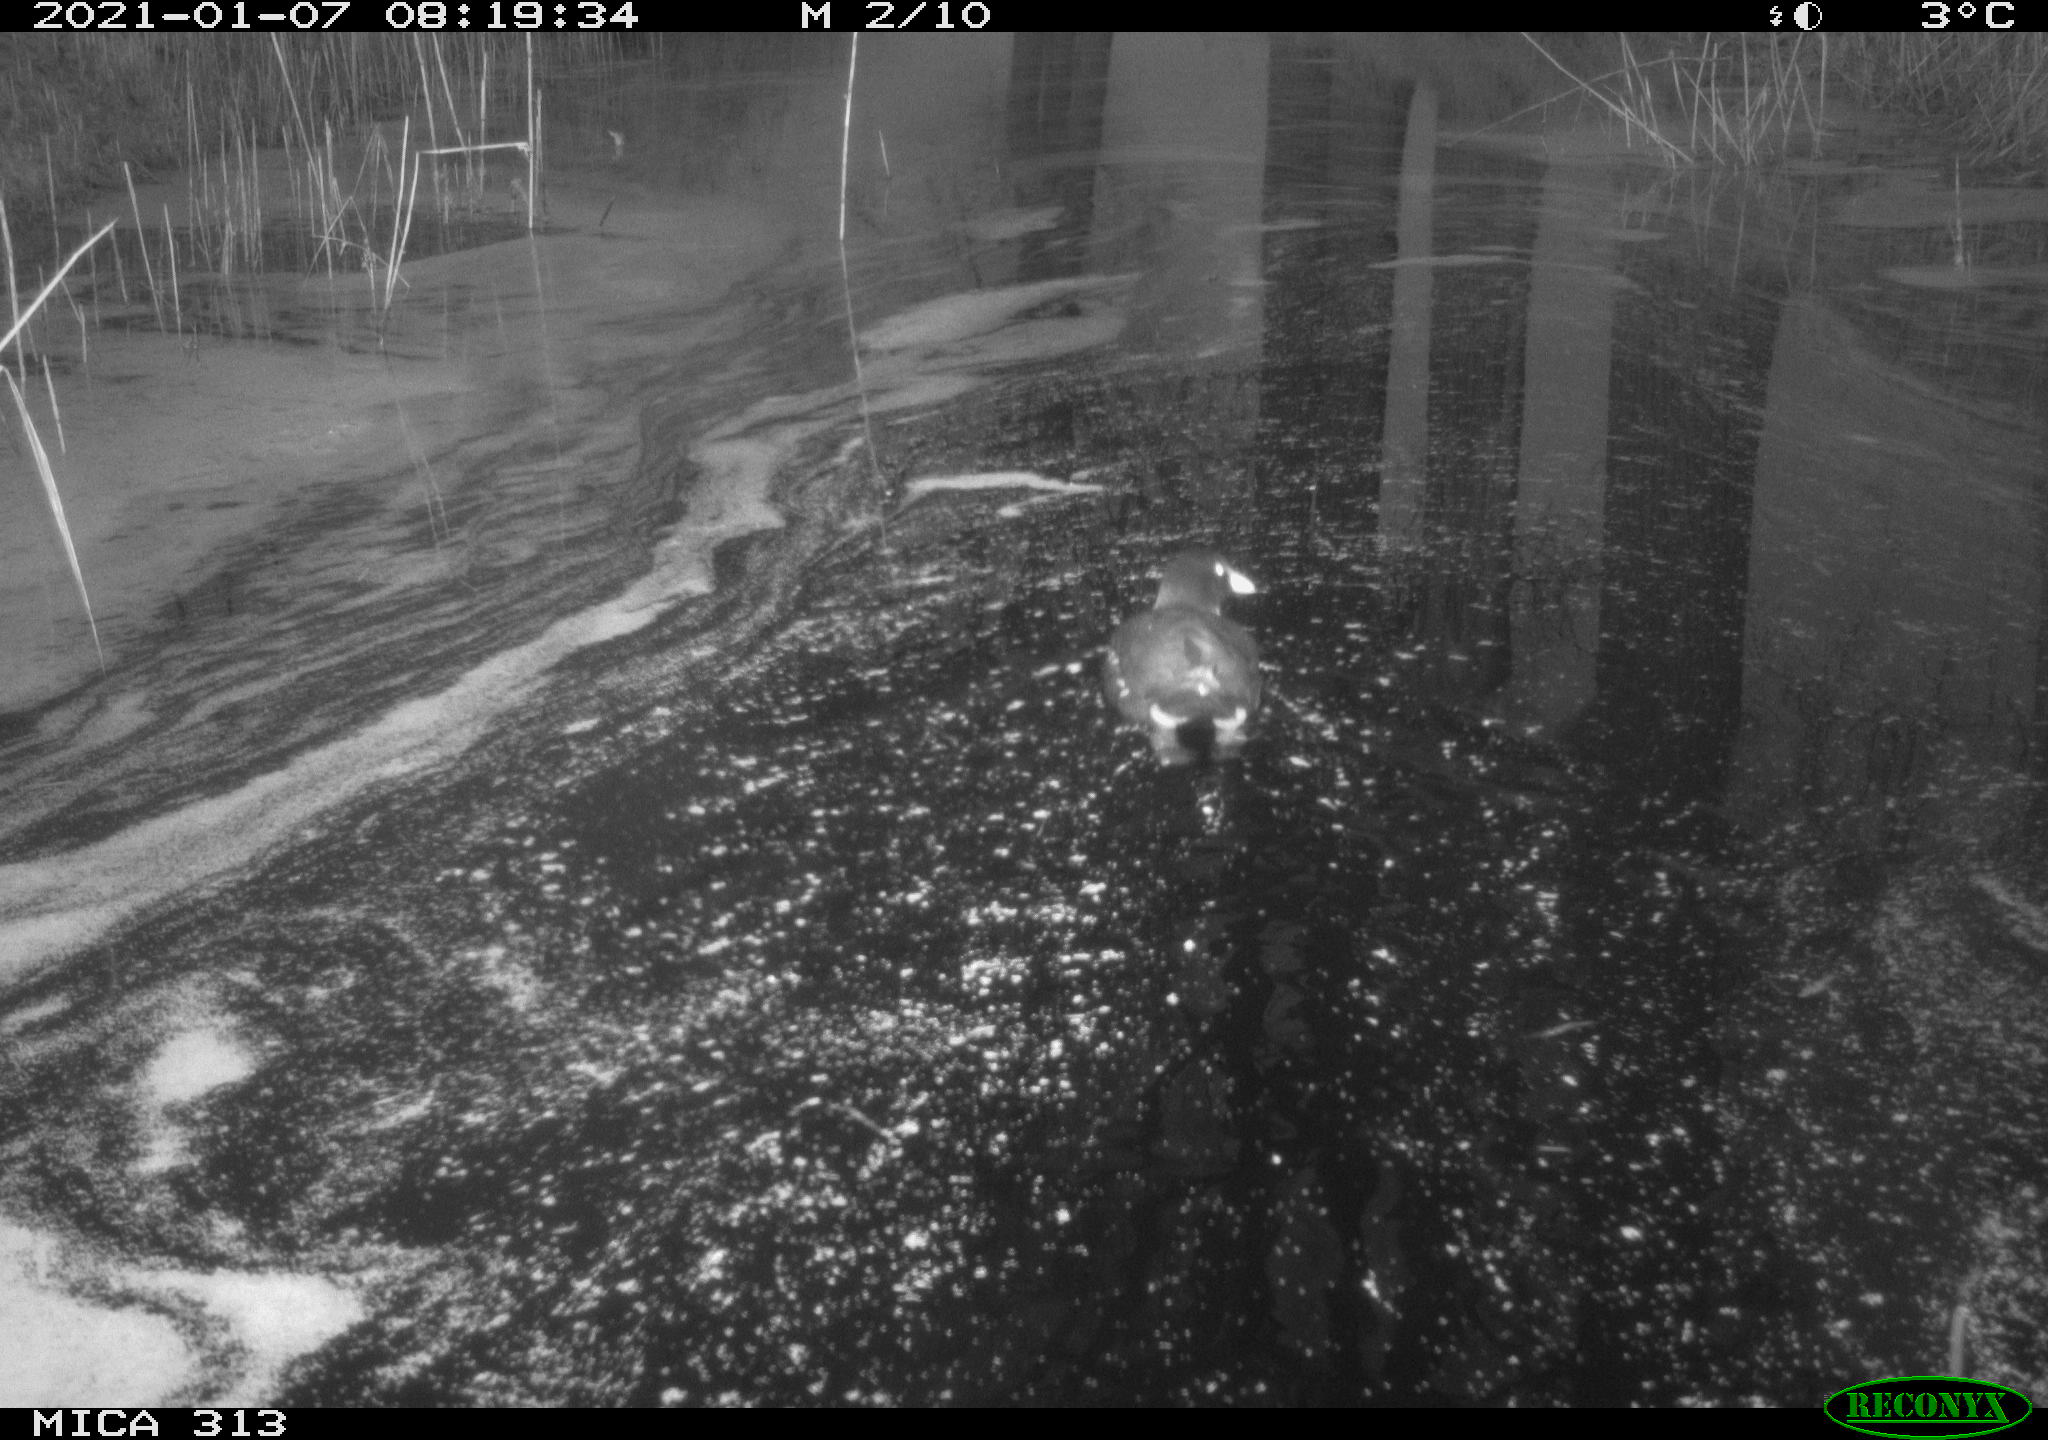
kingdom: Animalia
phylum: Chordata
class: Aves
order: Gruiformes
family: Rallidae
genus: Gallinula
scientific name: Gallinula chloropus
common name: Common moorhen
